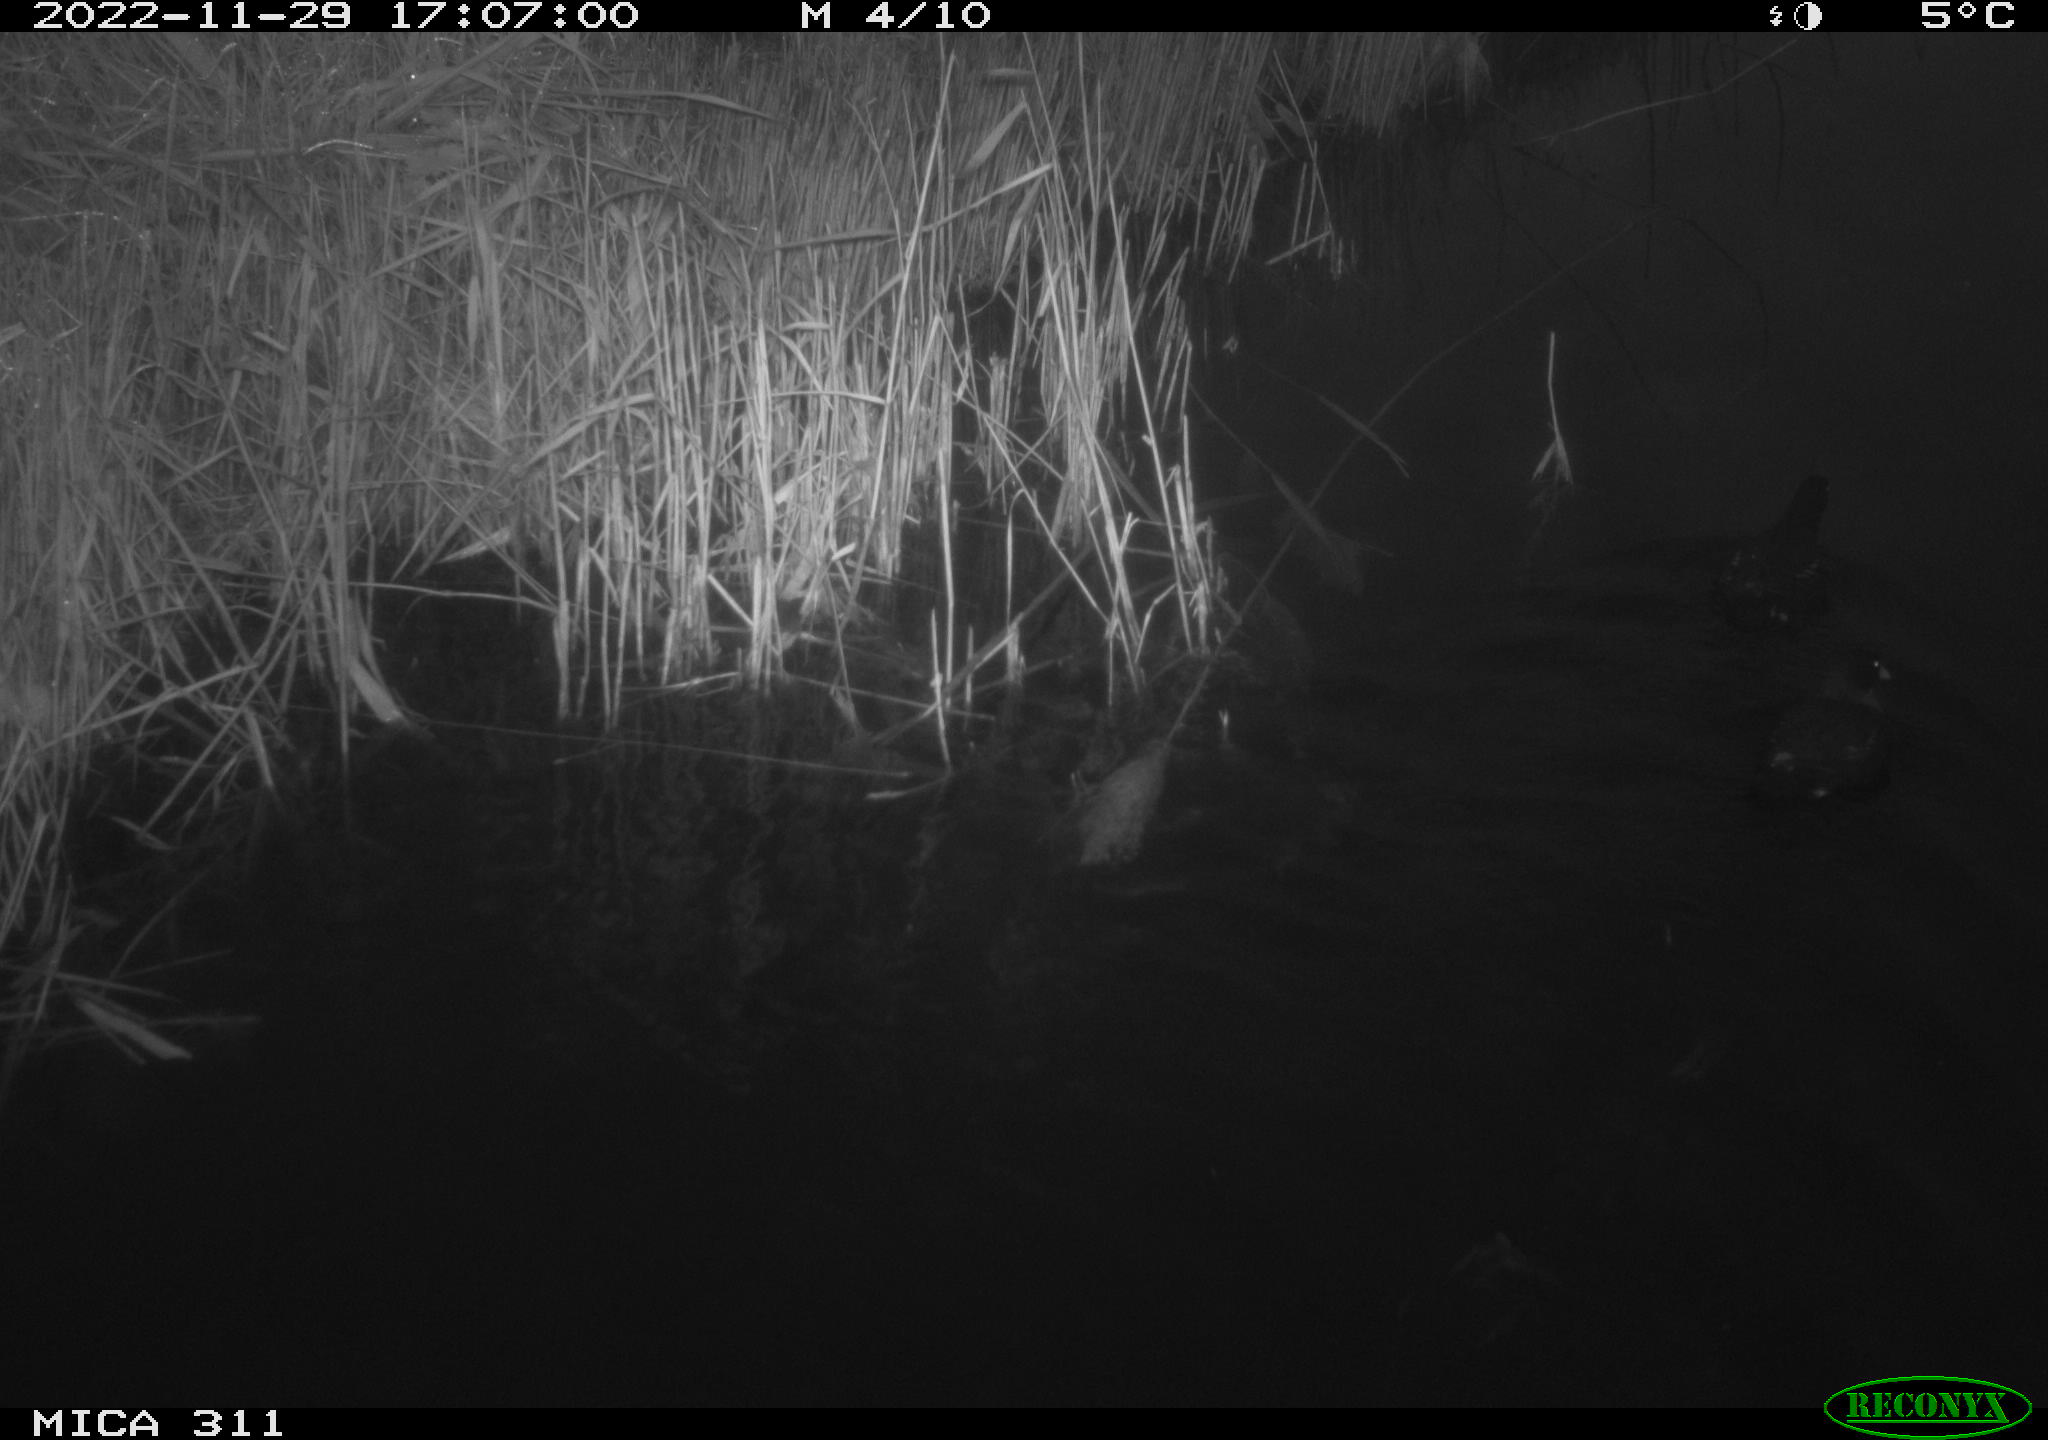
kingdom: Animalia
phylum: Chordata
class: Aves
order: Gruiformes
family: Rallidae
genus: Gallinula
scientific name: Gallinula chloropus
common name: Common moorhen
